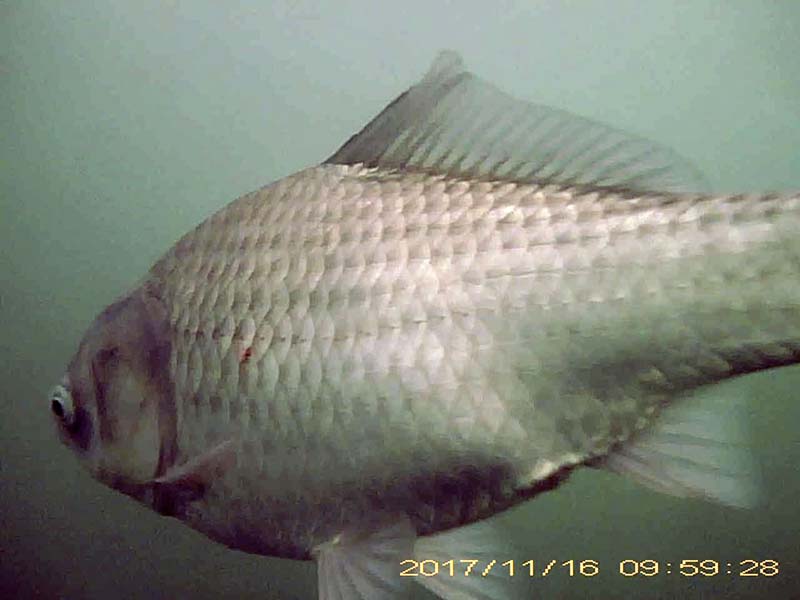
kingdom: Animalia
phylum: Chordata
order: Cypriniformes
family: Cyprinidae
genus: Carassius
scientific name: Carassius cuvieri
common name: ゲンゴロウブナ
